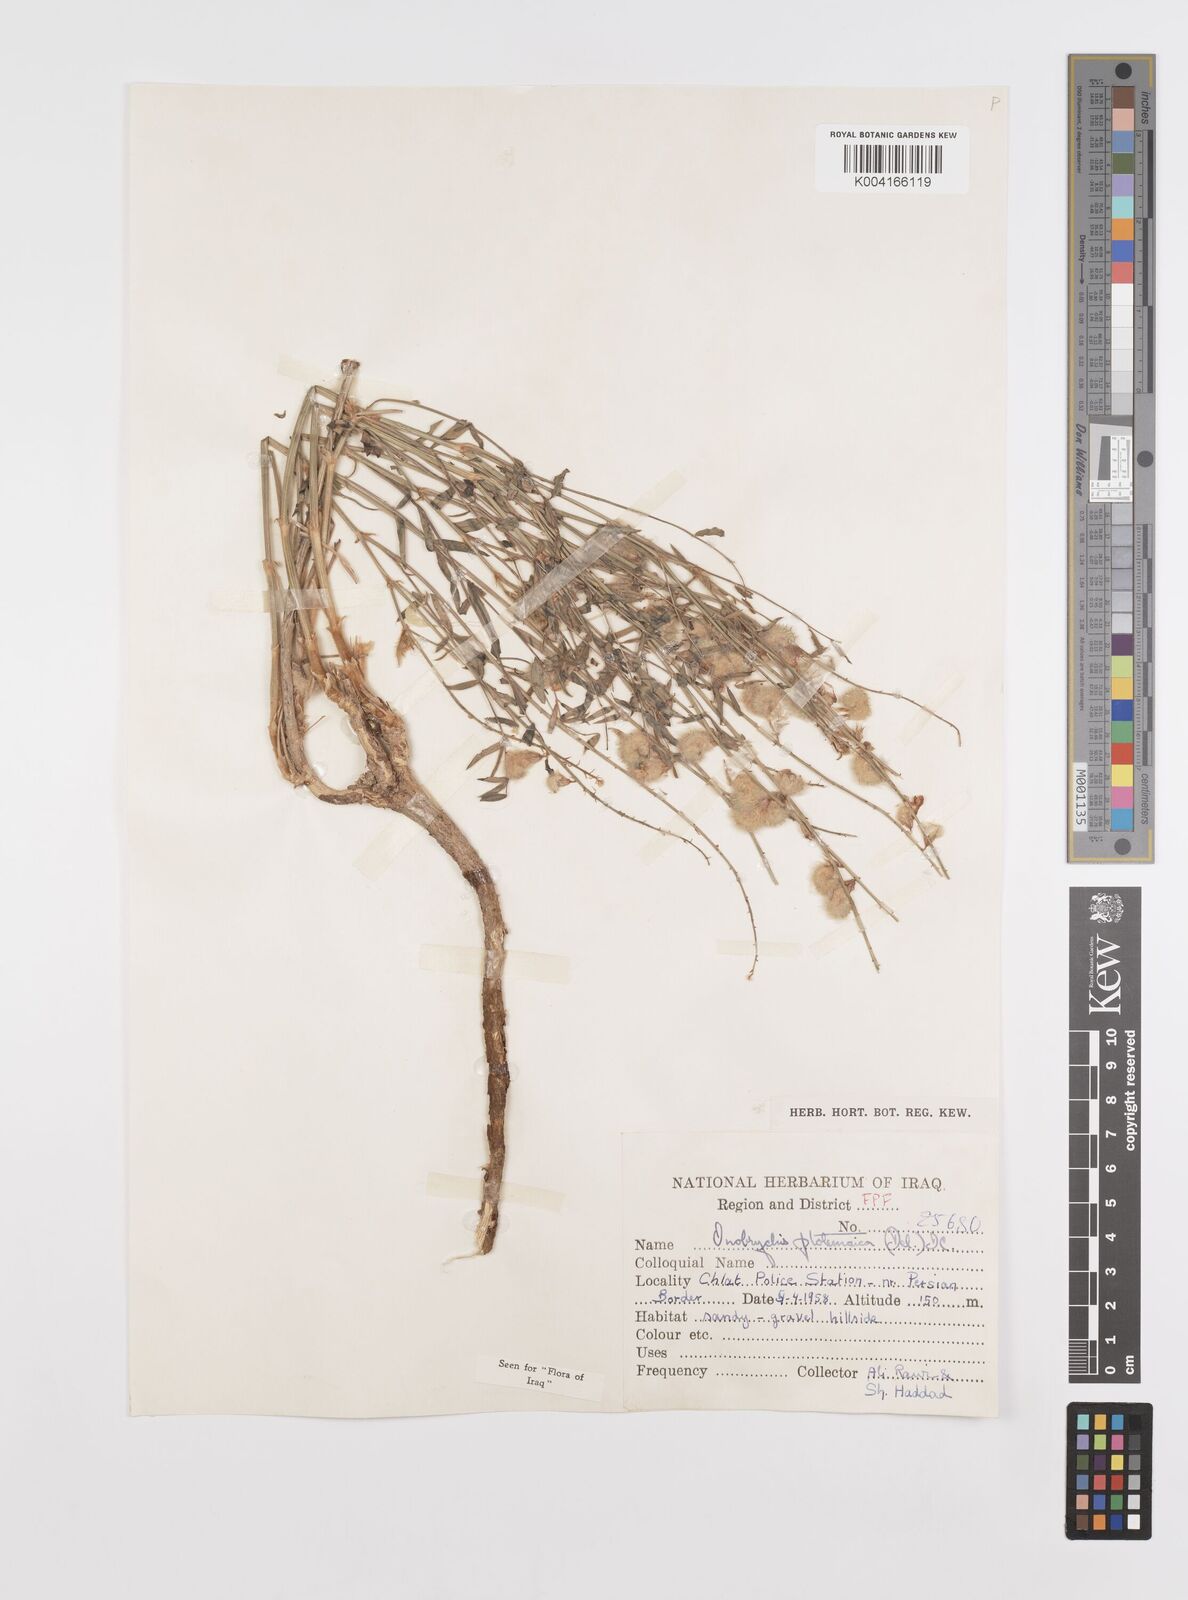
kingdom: Plantae
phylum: Tracheophyta
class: Magnoliopsida
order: Fabales
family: Fabaceae
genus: Onobrychis
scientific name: Onobrychis ptolemaica
